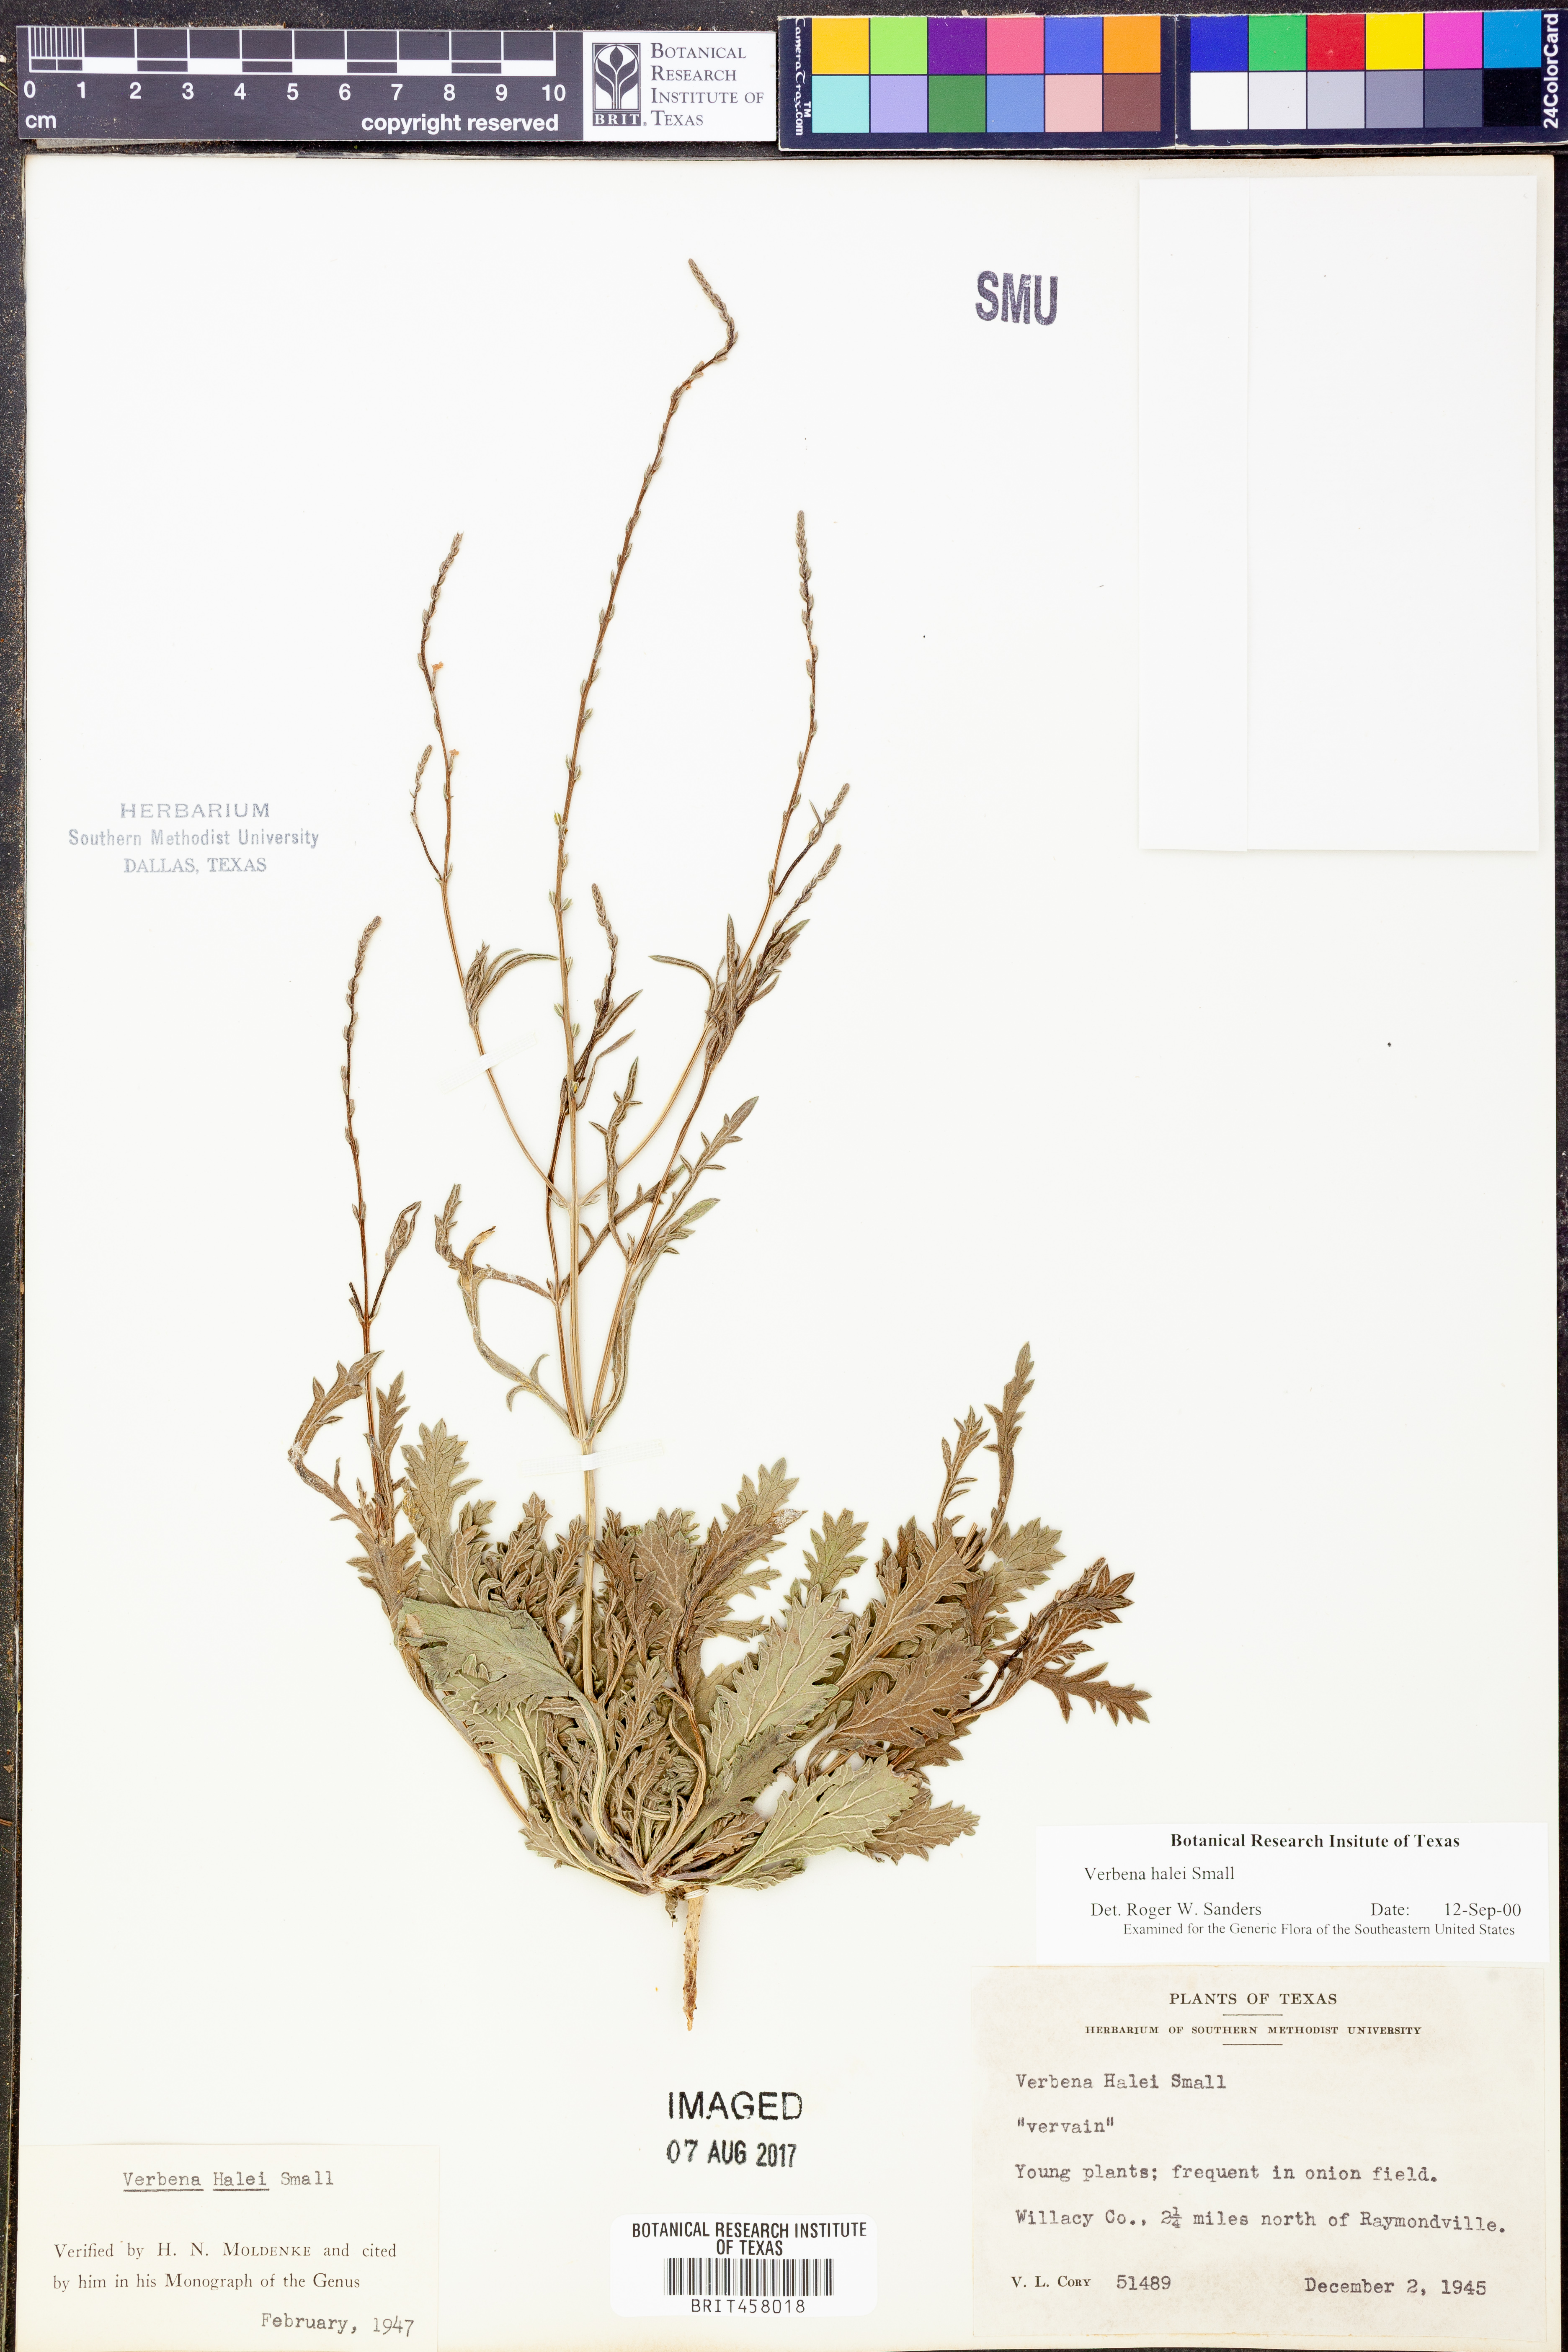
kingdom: Plantae
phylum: Tracheophyta
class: Magnoliopsida
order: Lamiales
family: Verbenaceae
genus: Verbena
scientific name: Verbena halei
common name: Texas vervain
